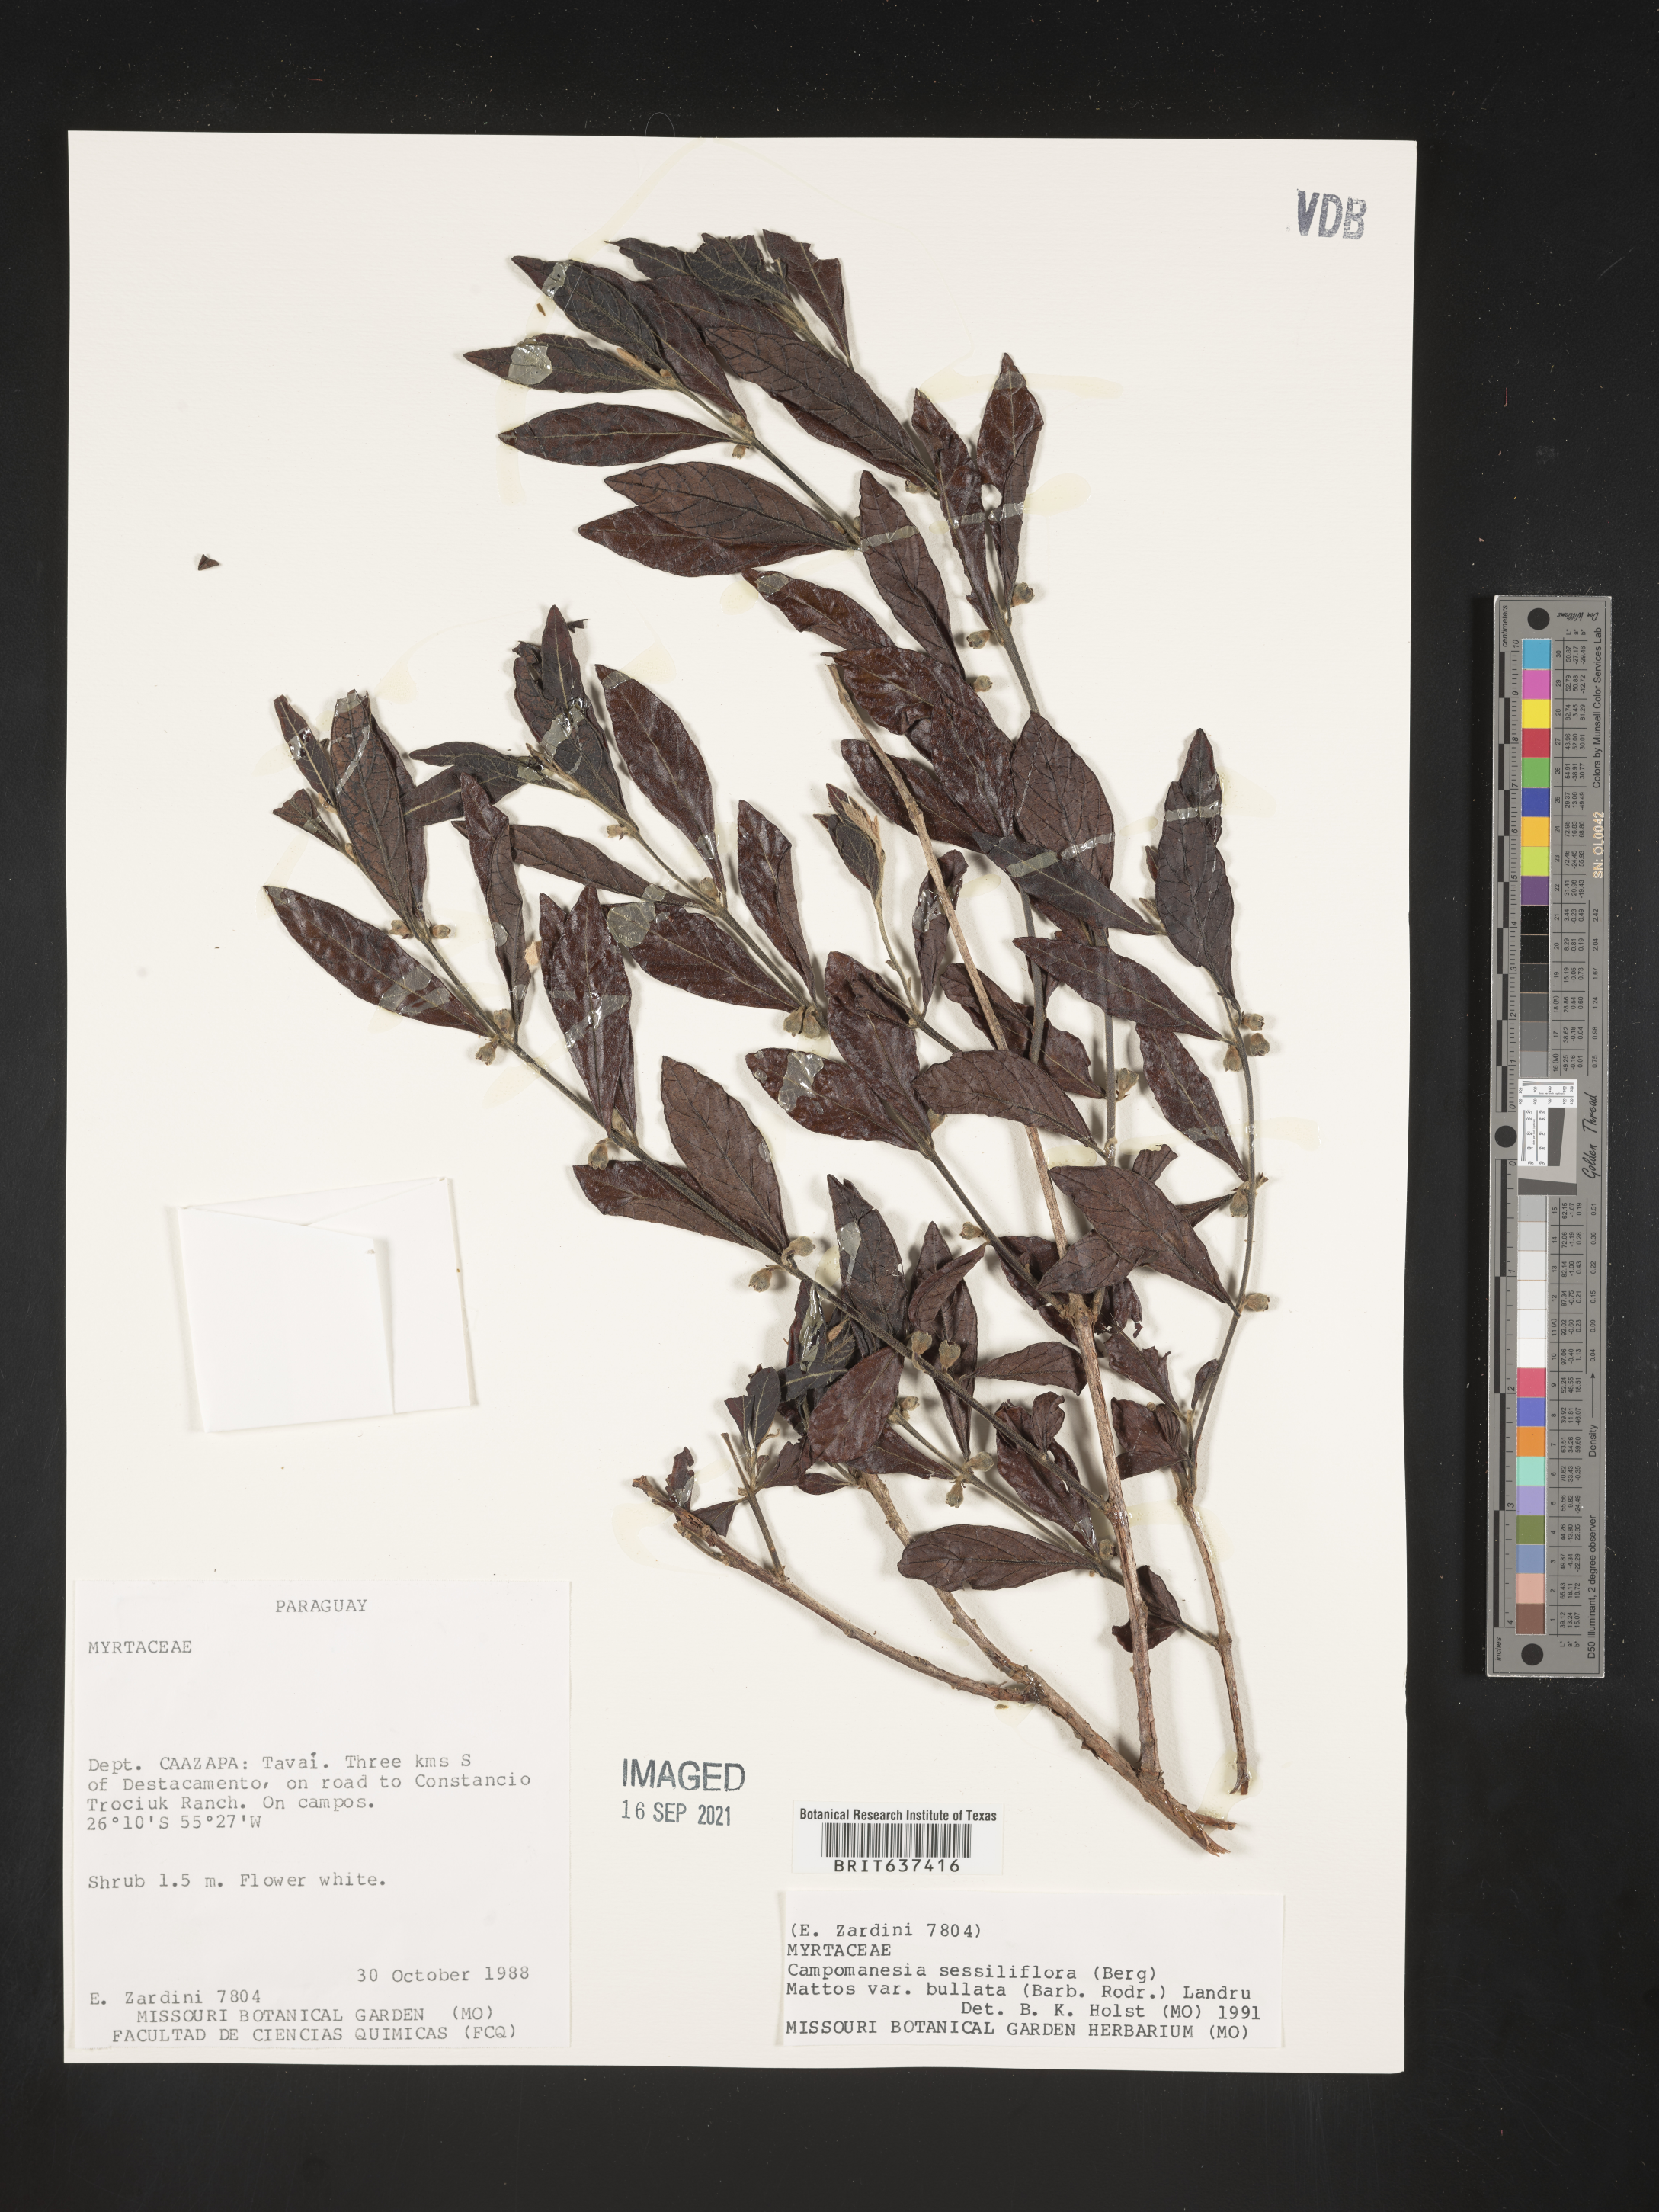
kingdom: Plantae
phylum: Tracheophyta
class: Magnoliopsida
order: Myrtales
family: Myrtaceae
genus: Campomanesia
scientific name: Campomanesia
